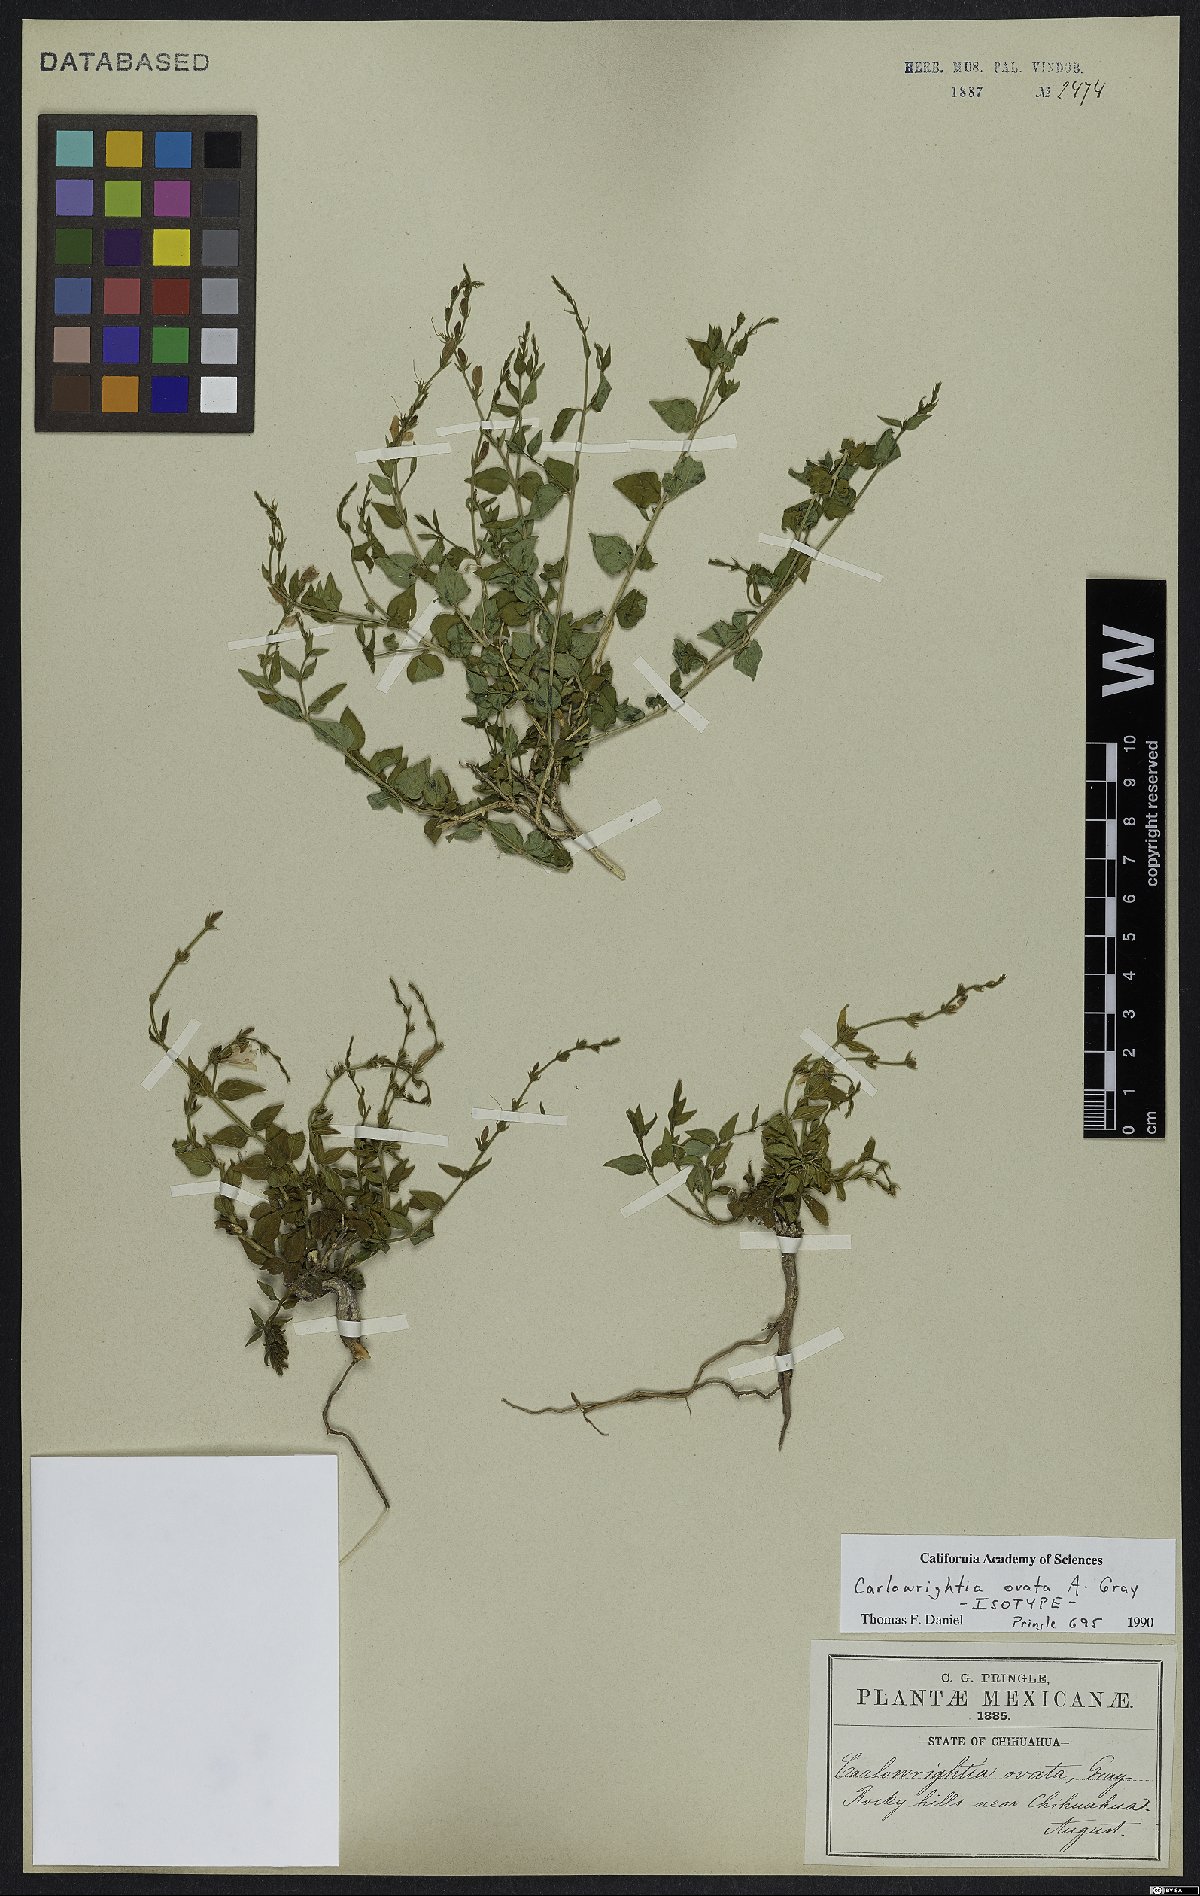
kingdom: Plantae
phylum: Tracheophyta
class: Magnoliopsida
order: Lamiales
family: Acanthaceae
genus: Carlowrightia
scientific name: Carlowrightia ovata
